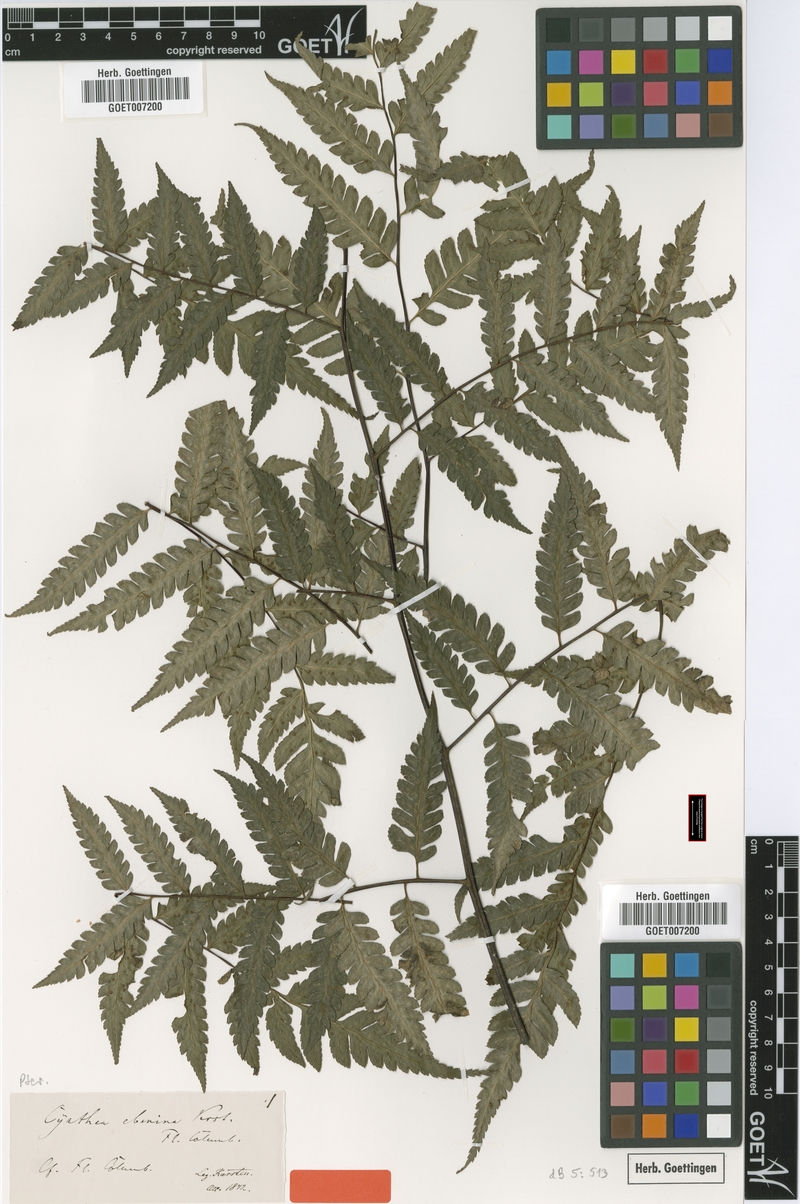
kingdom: Plantae
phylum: Tracheophyta
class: Polypodiopsida
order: Cyatheales
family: Cyatheaceae
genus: Cyathea
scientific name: Cyathea ebenina
